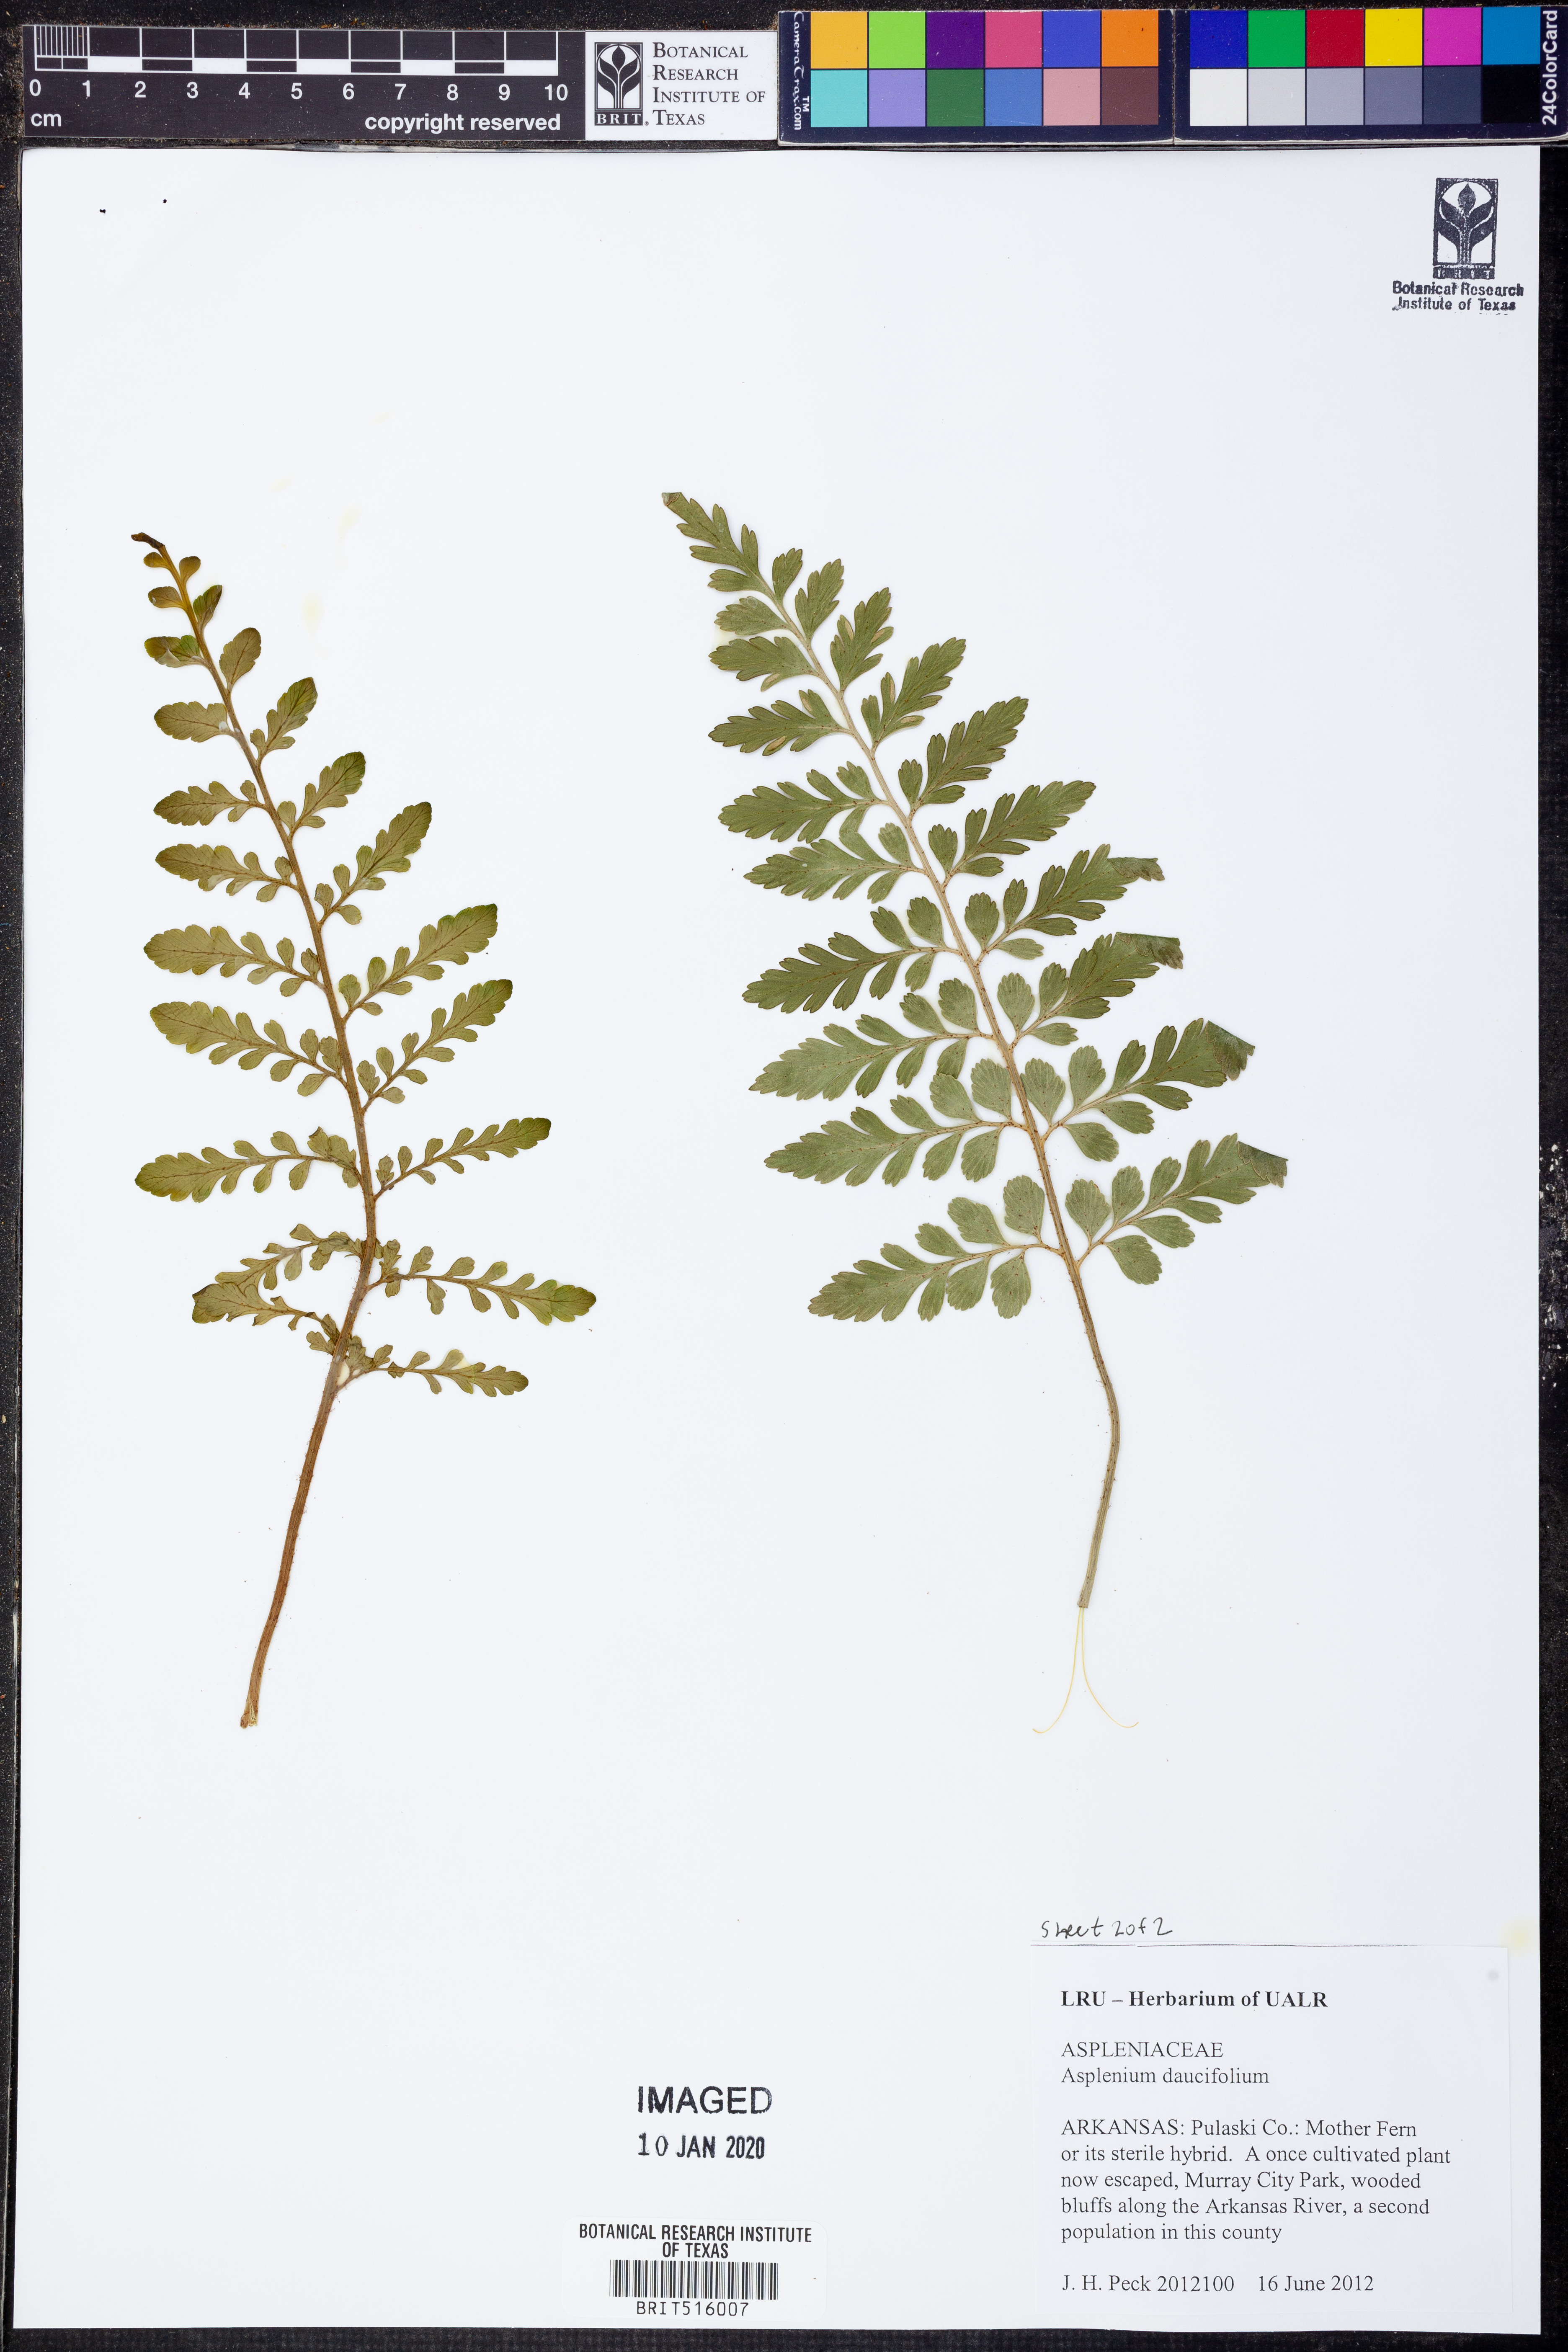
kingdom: Plantae
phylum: Tracheophyta
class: Polypodiopsida
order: Polypodiales
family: Aspleniaceae
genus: Asplenium
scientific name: Asplenium daucifolium
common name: Mauritius spleenwort
